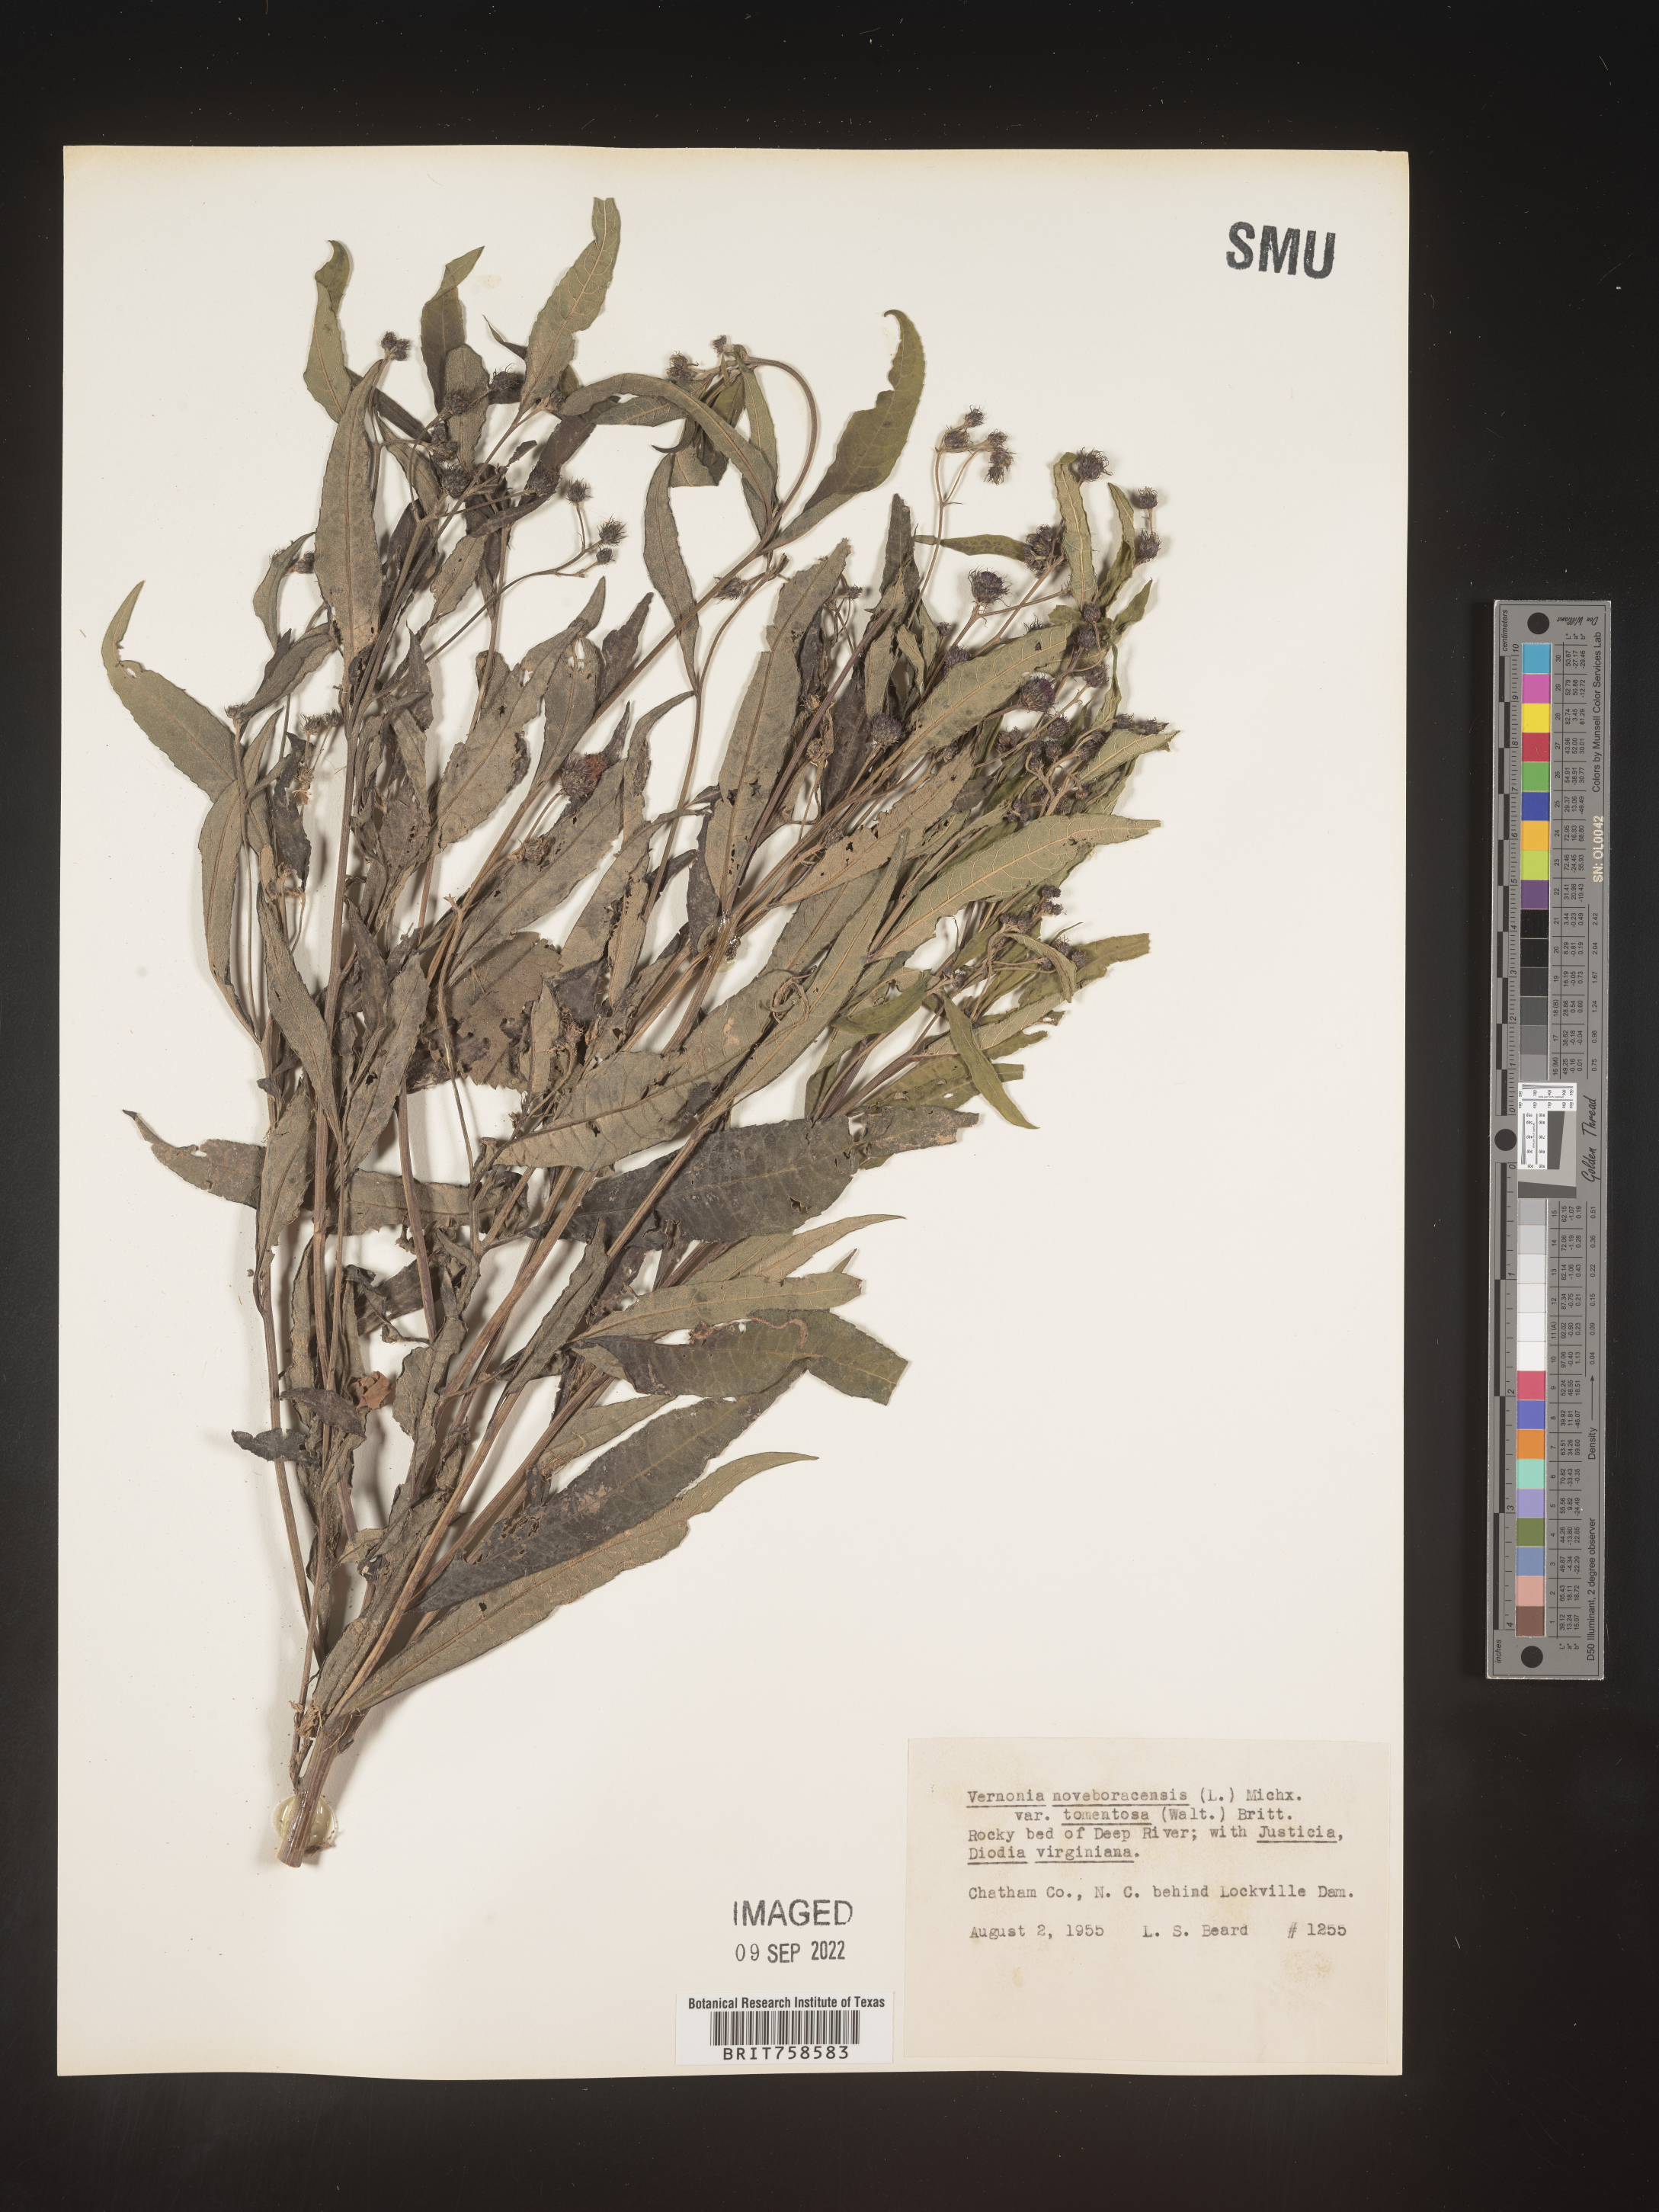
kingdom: Plantae
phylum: Tracheophyta
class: Magnoliopsida
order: Asterales
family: Asteraceae
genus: Vernonia
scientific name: Vernonia noveboracensis
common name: New york ironweed
